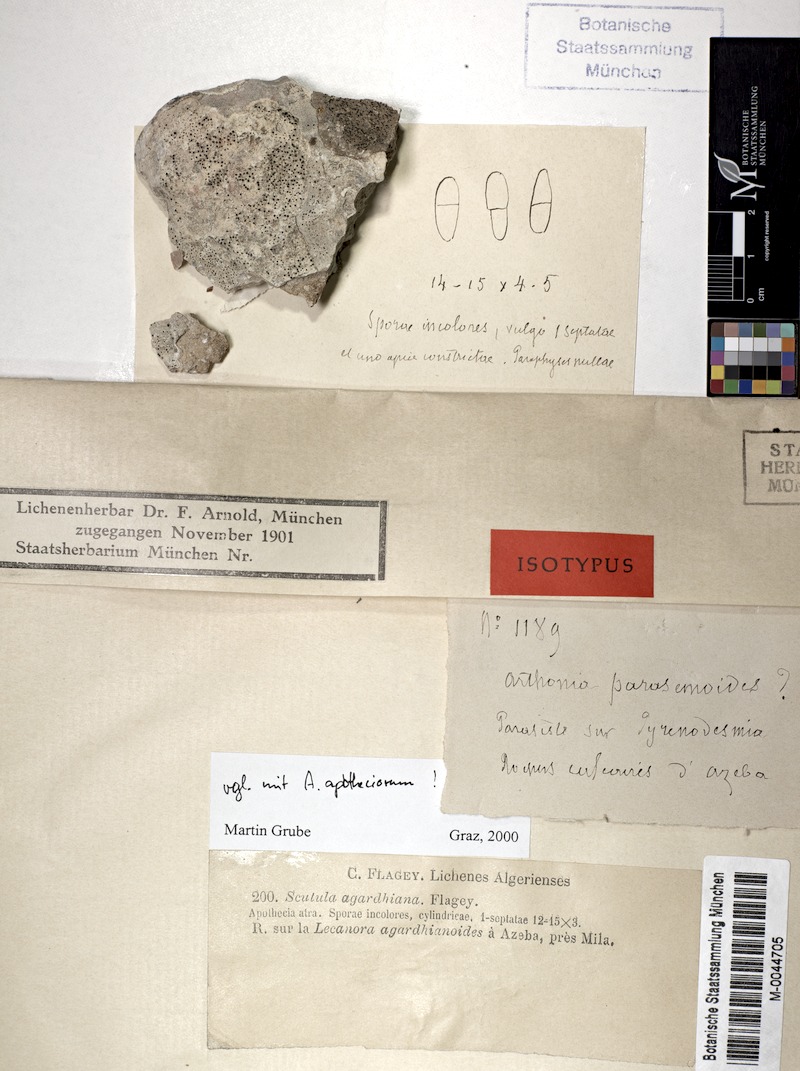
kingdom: Fungi
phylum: Ascomycota
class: Lecanoromycetes
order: Lecanorales
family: Lecanoraceae
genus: Polyozosia
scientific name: Polyozosia agardhiana
